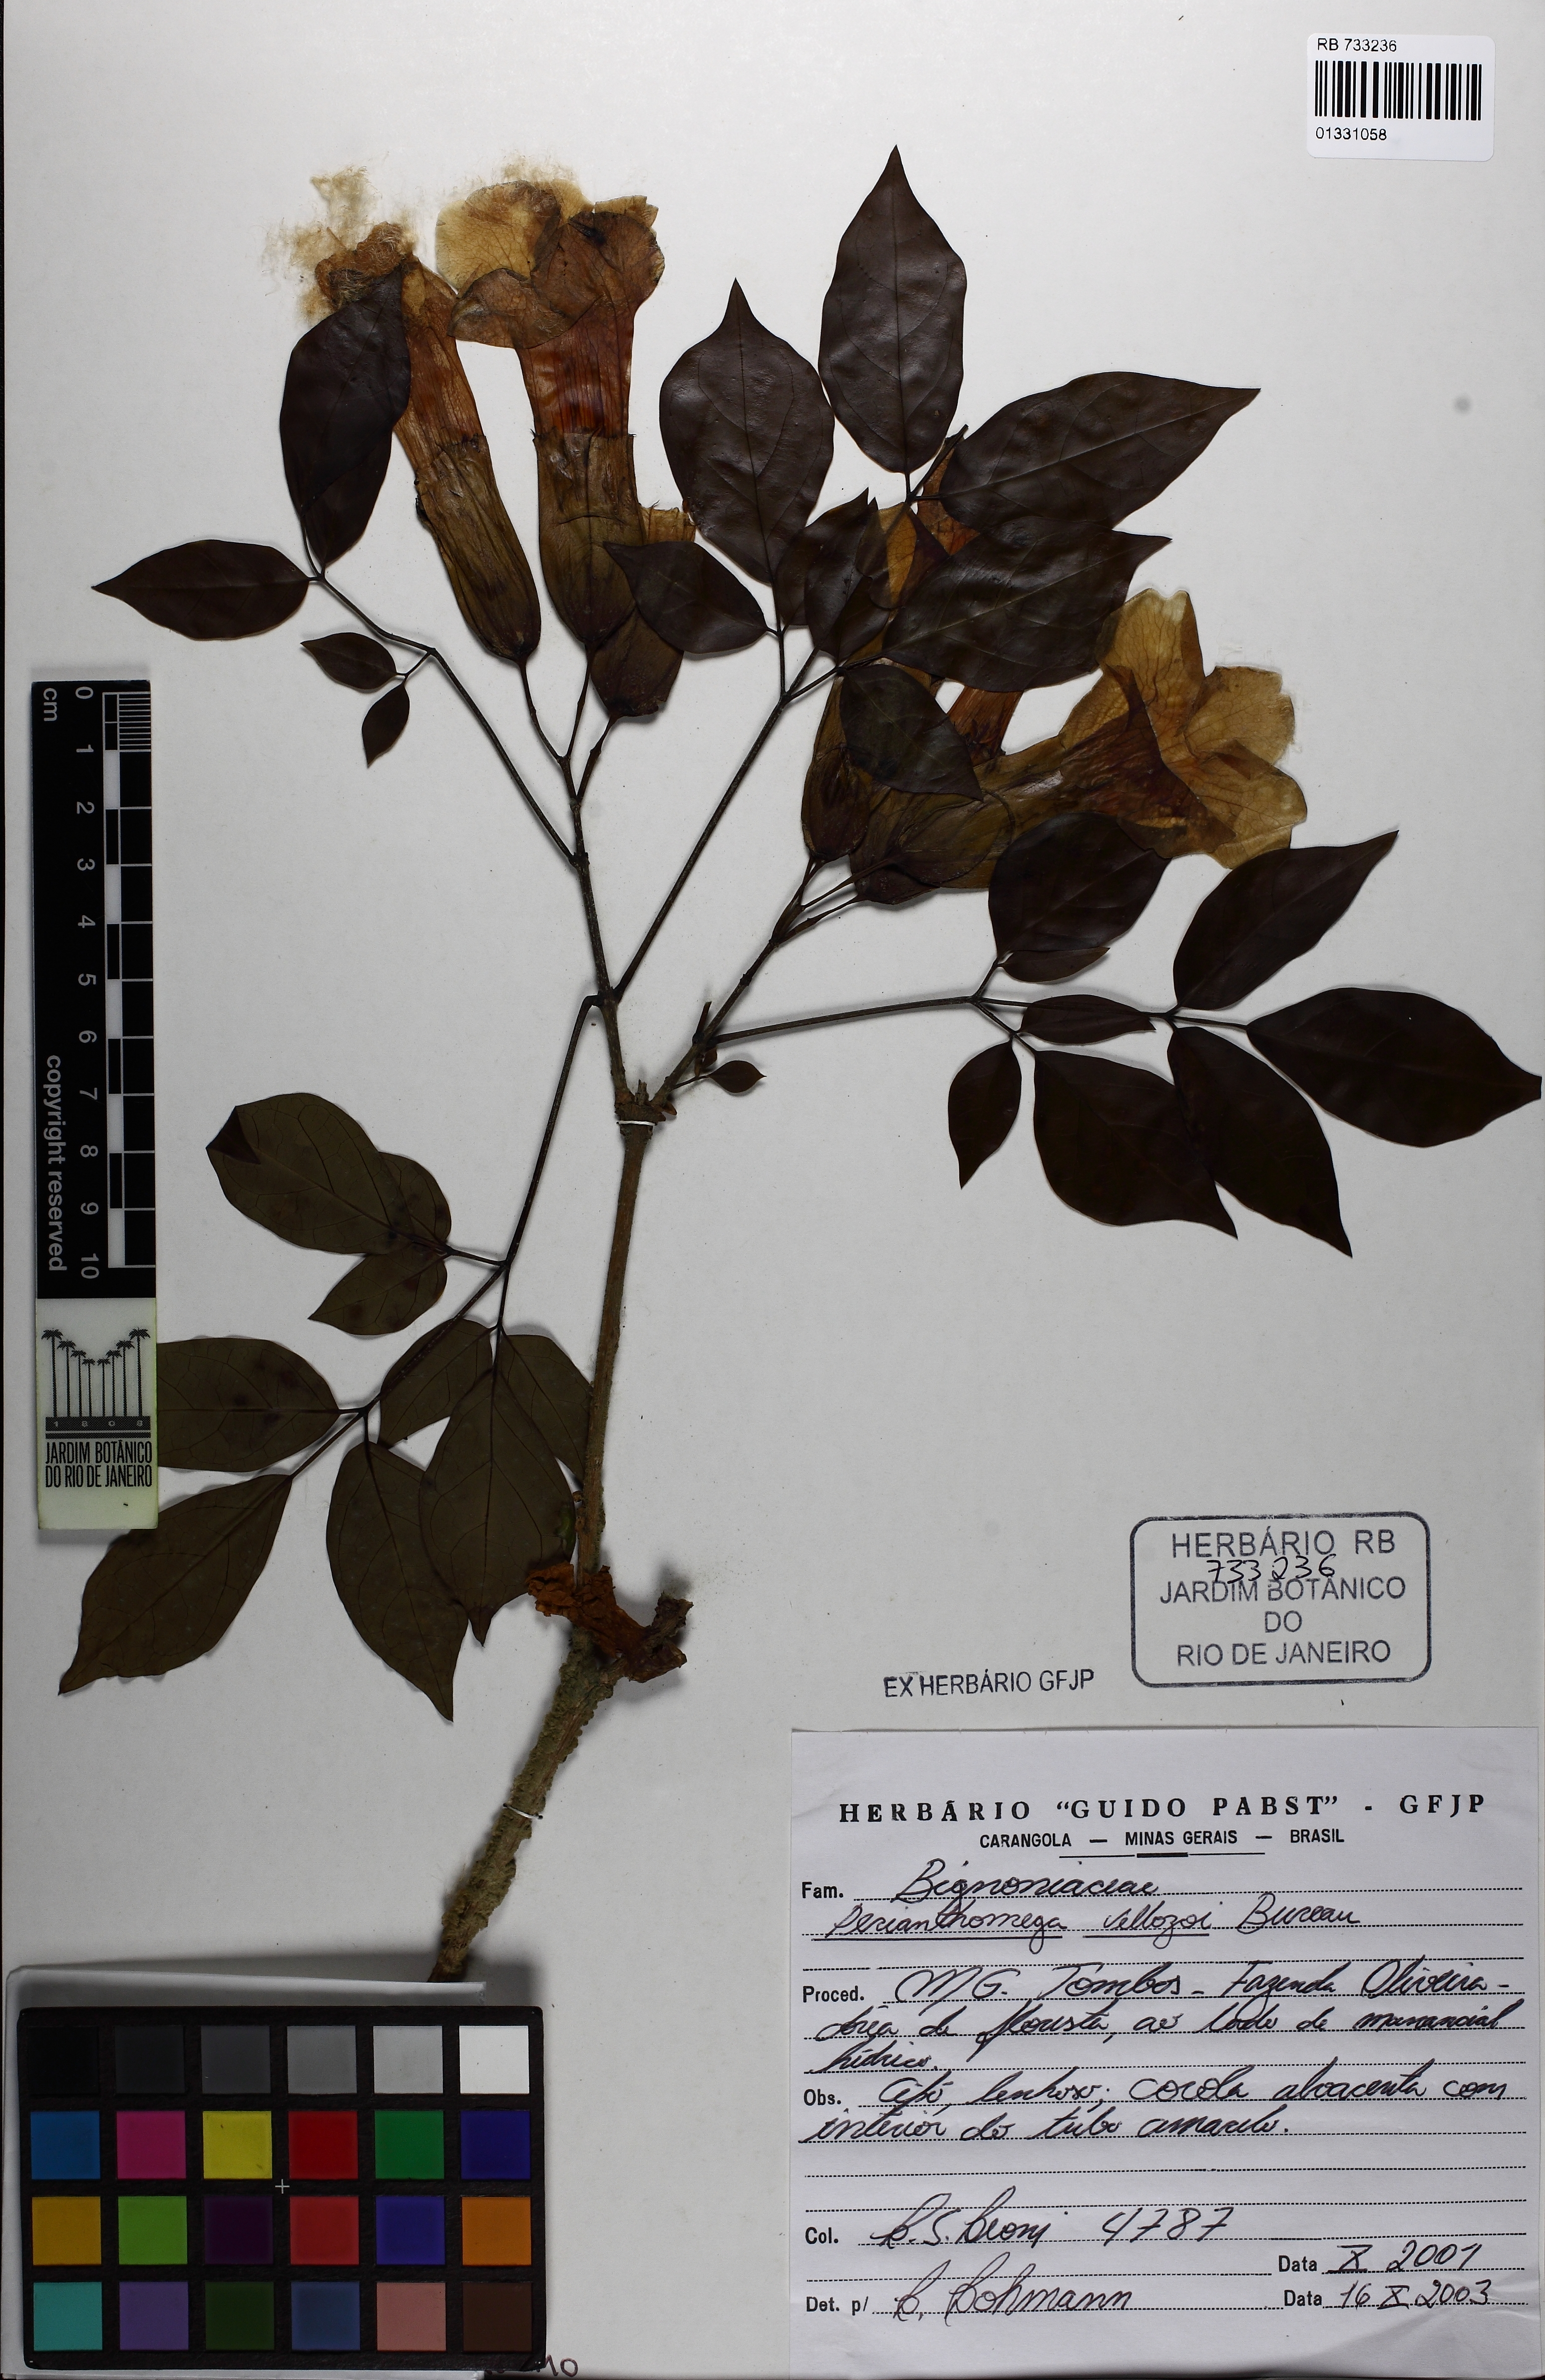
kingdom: Plantae
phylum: Tracheophyta
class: Magnoliopsida
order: Lamiales
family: Bignoniaceae
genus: Perianthomega
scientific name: Perianthomega vellozoi
